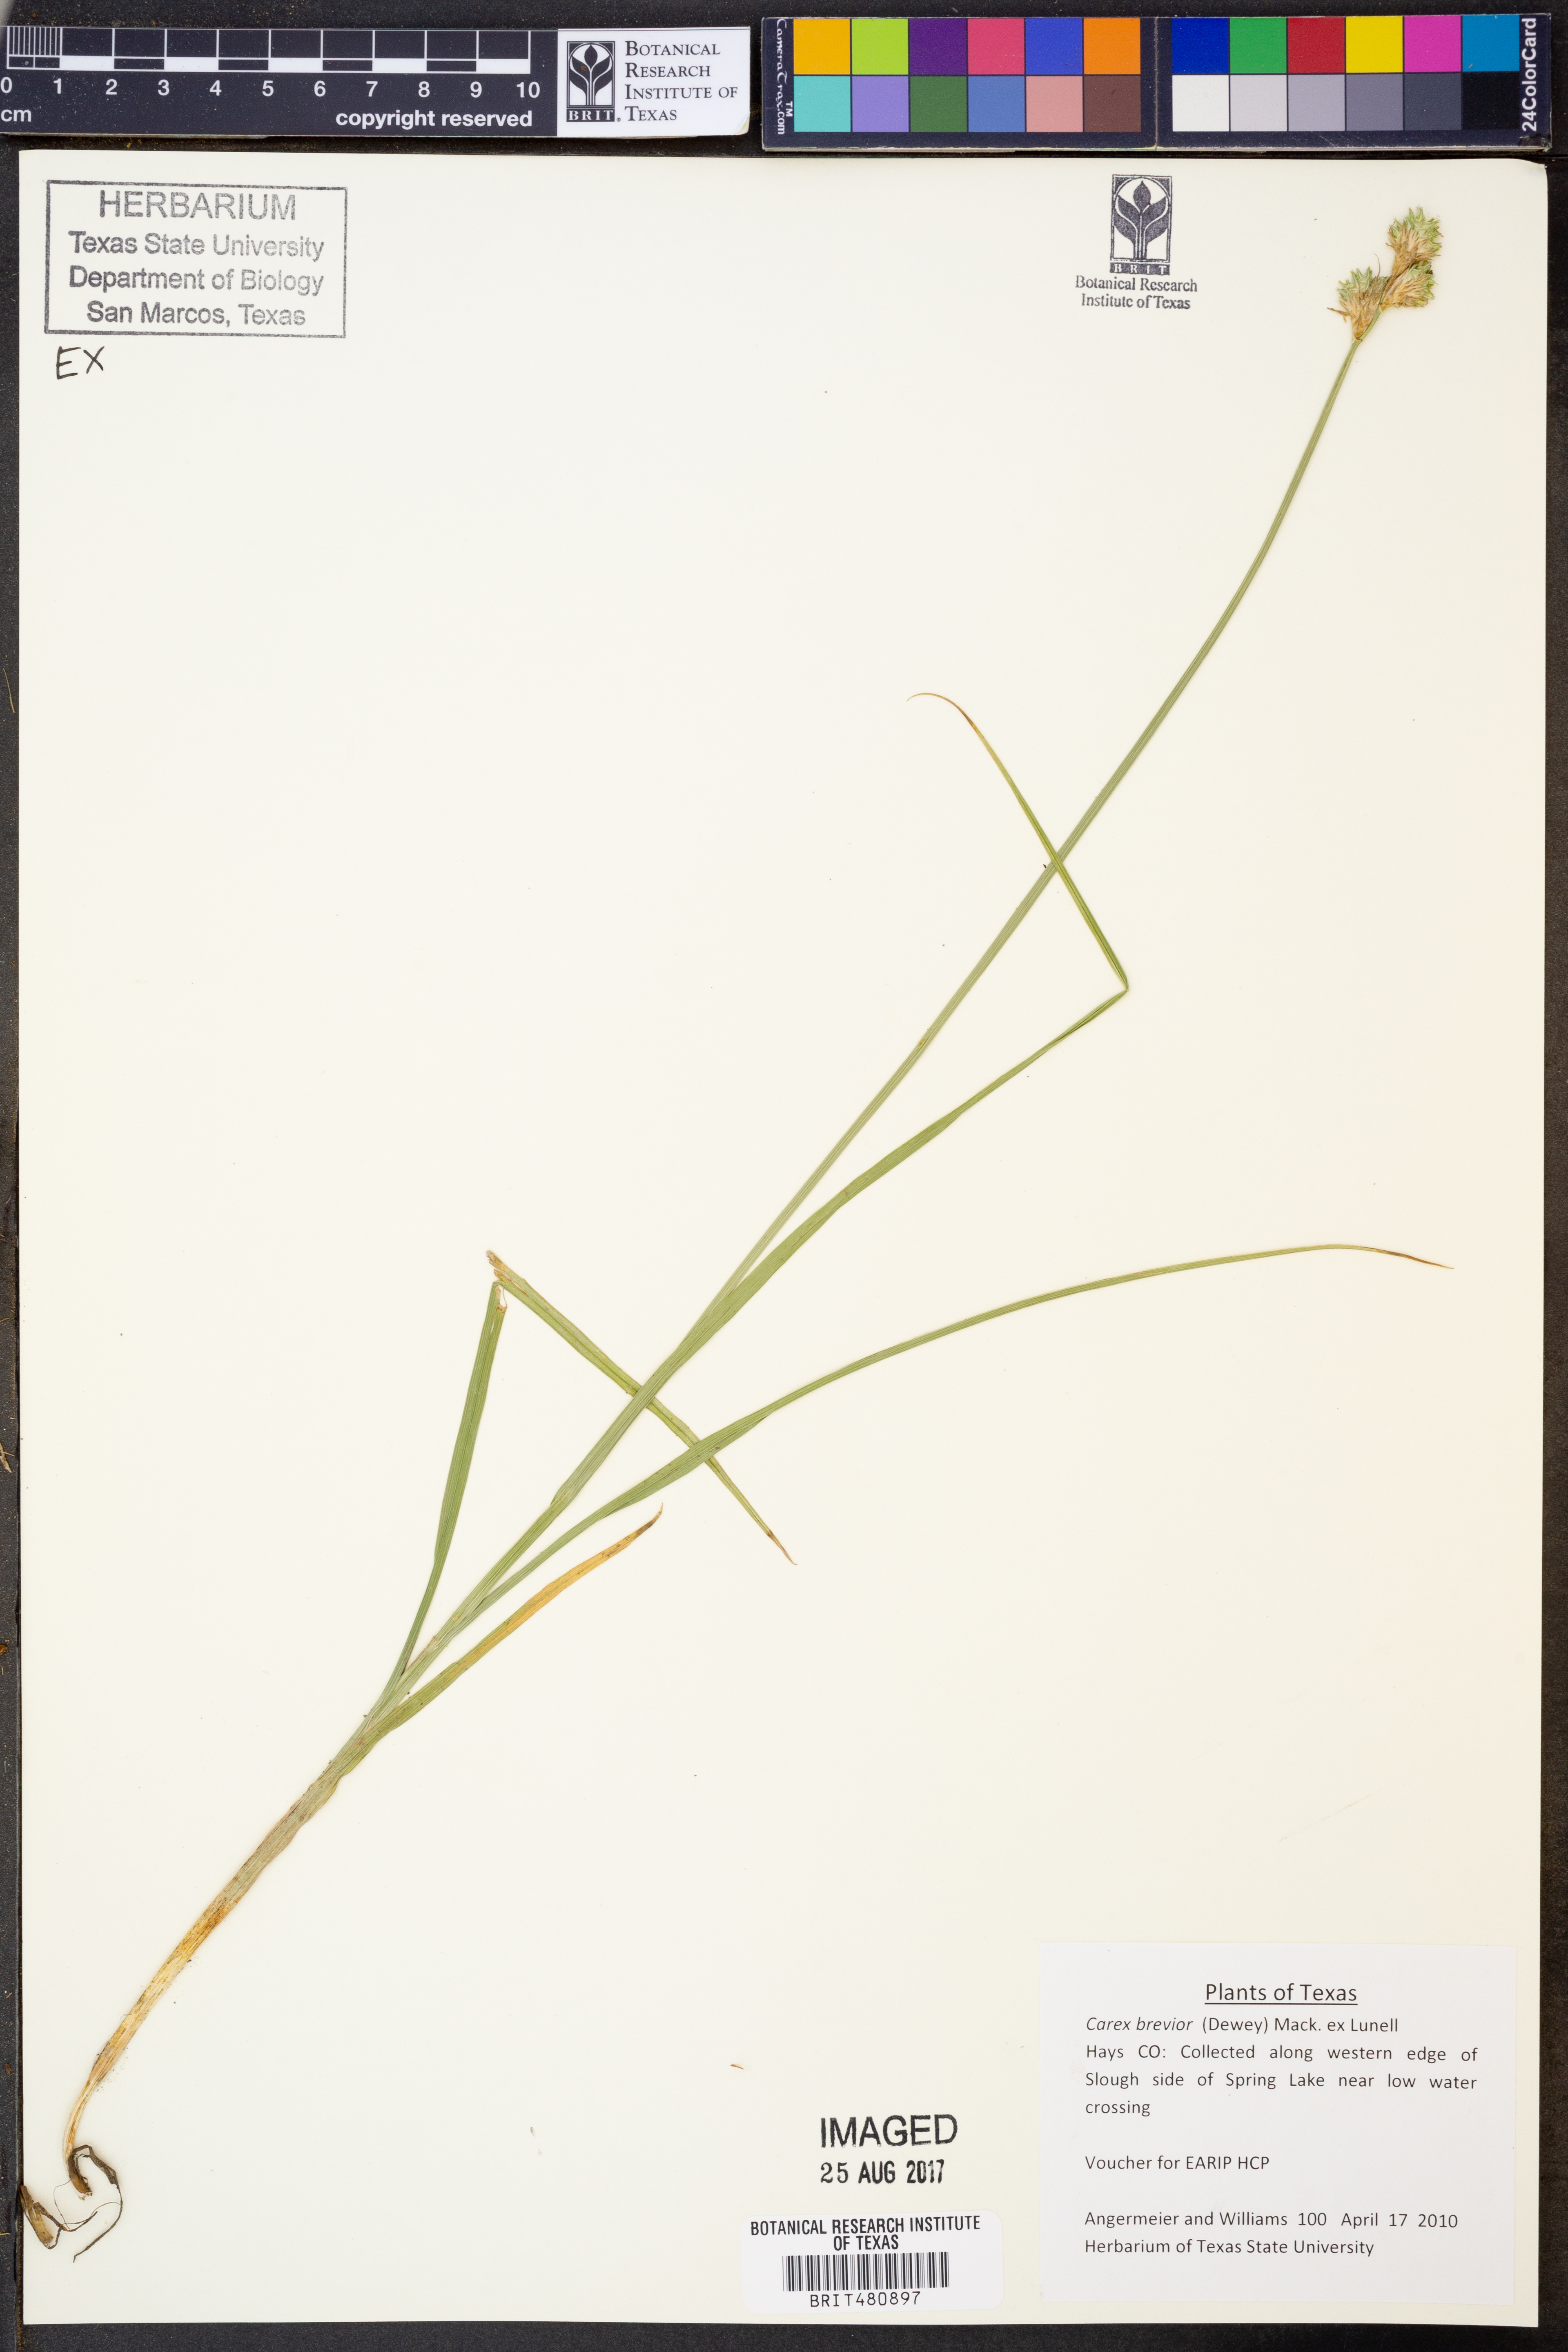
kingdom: Plantae
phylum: Tracheophyta
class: Liliopsida
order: Poales
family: Cyperaceae
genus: Carex
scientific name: Carex brevior
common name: Brevior sedge
